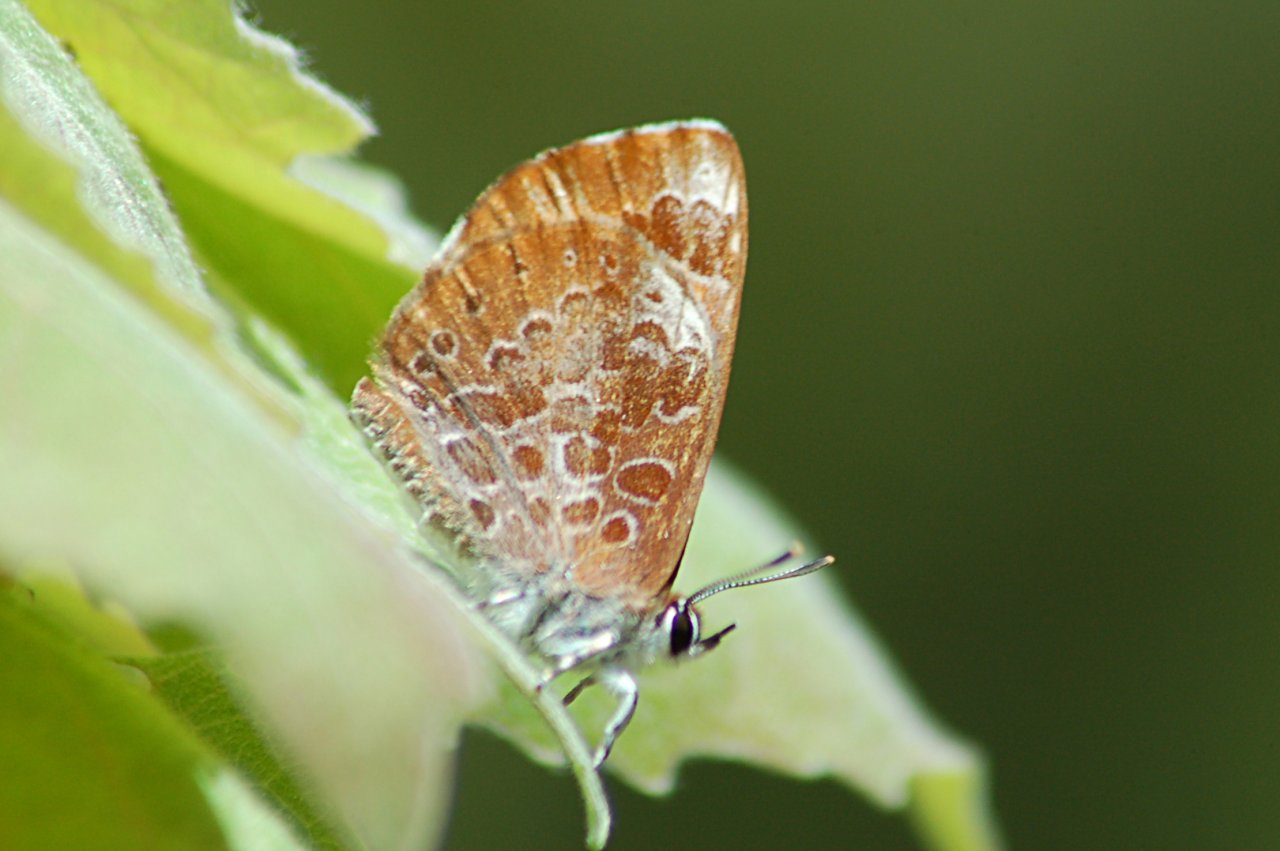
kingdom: Animalia
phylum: Arthropoda
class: Insecta
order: Lepidoptera
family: Lycaenidae
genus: Feniseca
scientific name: Feniseca tarquinius
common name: Harvester
